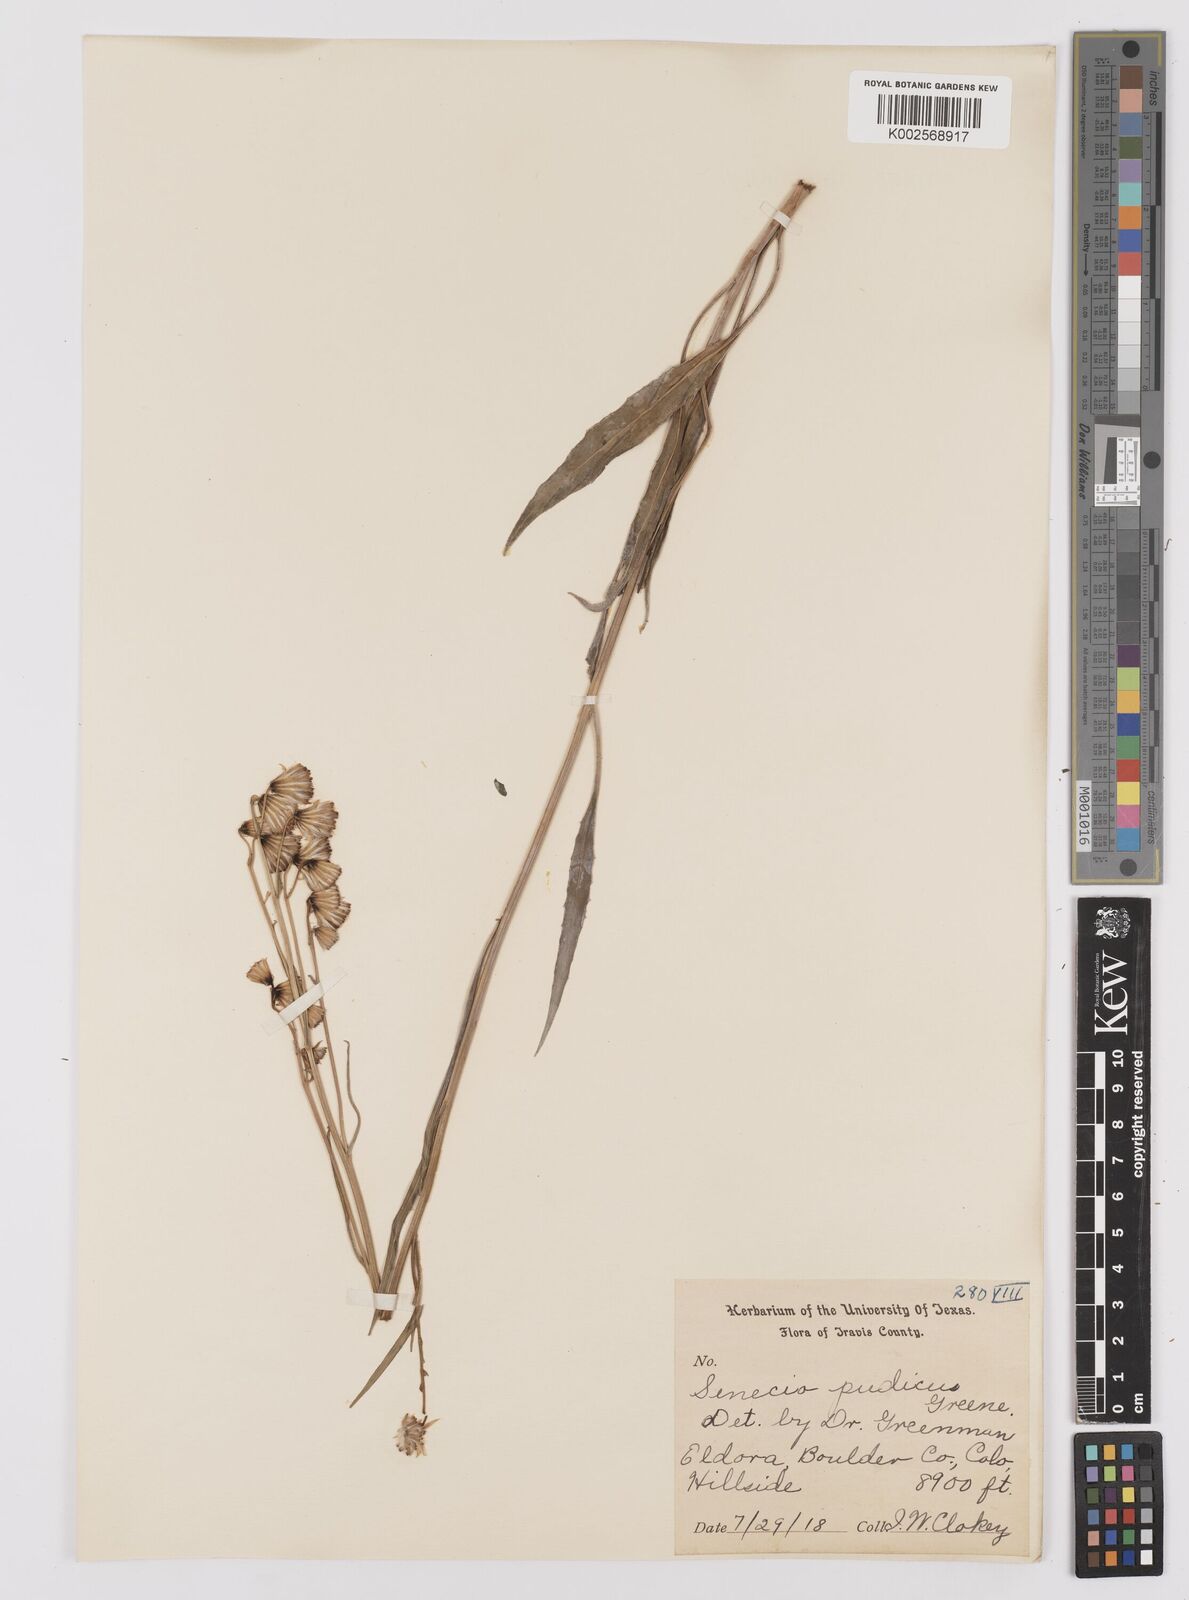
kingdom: Plantae
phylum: Tracheophyta
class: Magnoliopsida
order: Asterales
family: Asteraceae
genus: Senecio
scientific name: Senecio pudicus
